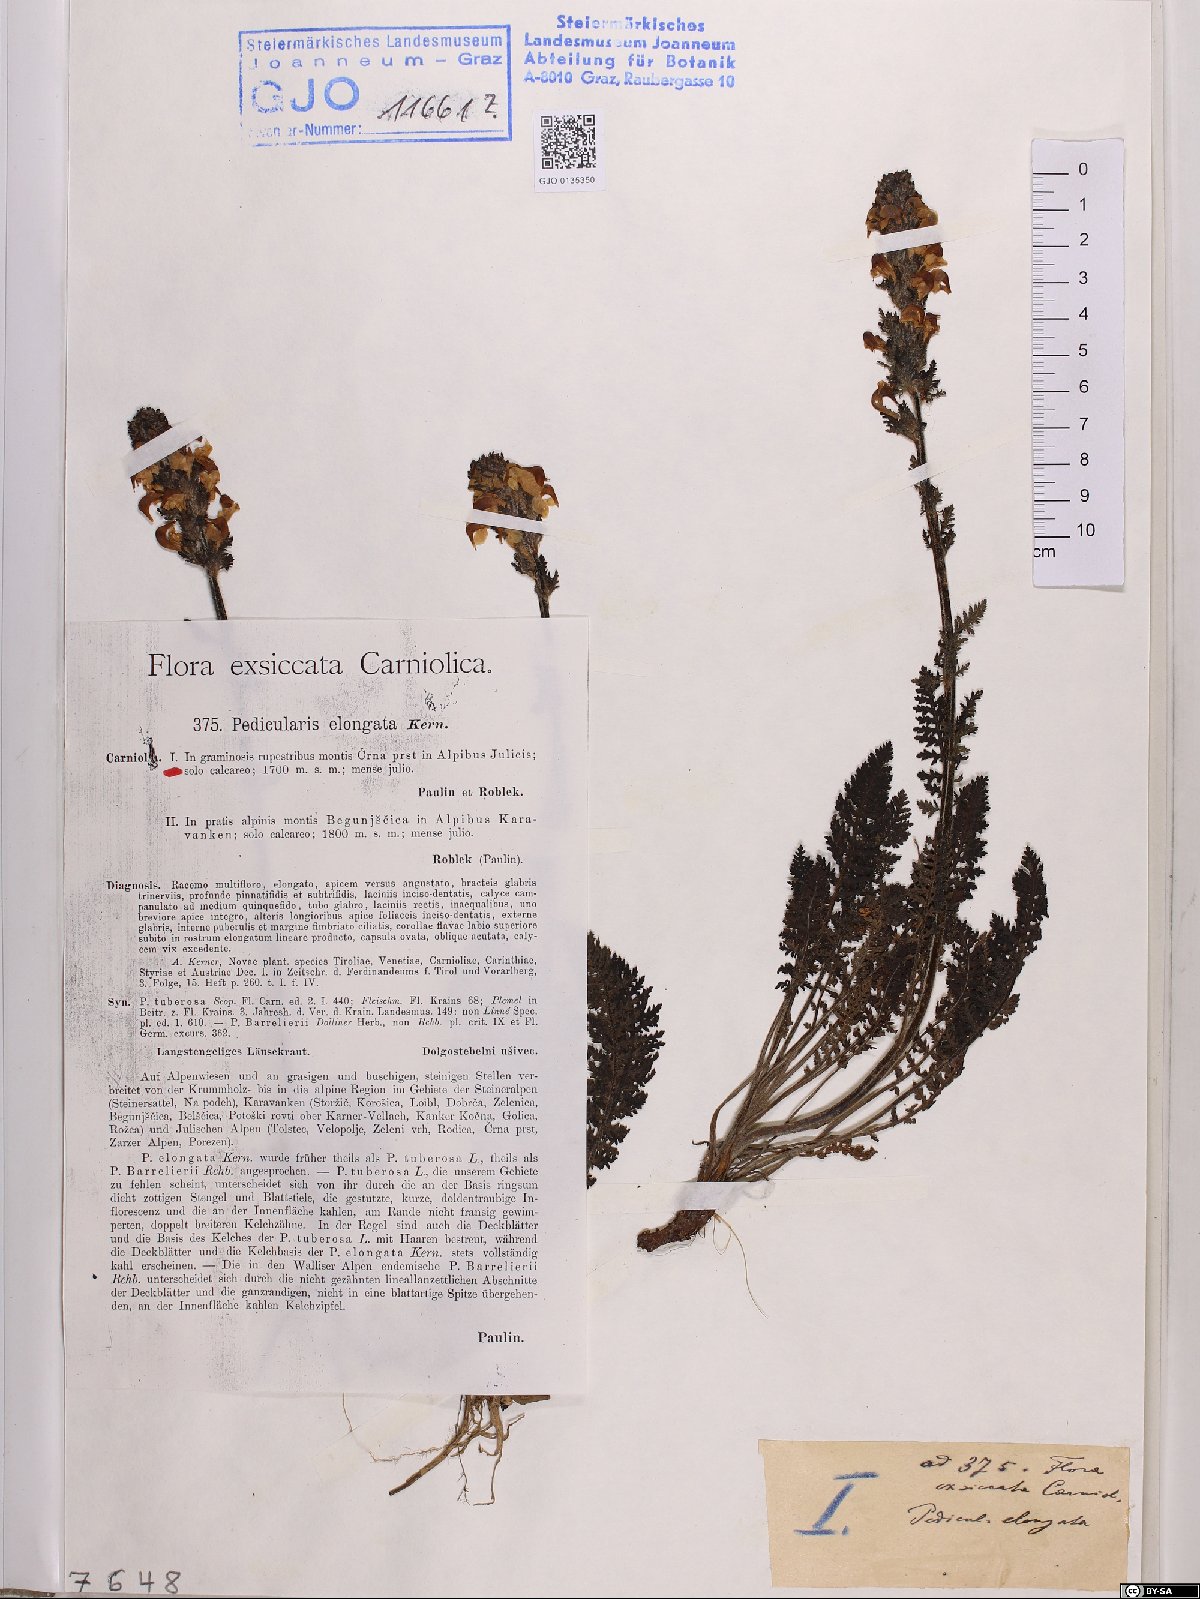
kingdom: Plantae
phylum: Tracheophyta
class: Magnoliopsida
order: Lamiales
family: Orobanchaceae
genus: Pedicularis
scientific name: Pedicularis elongata
